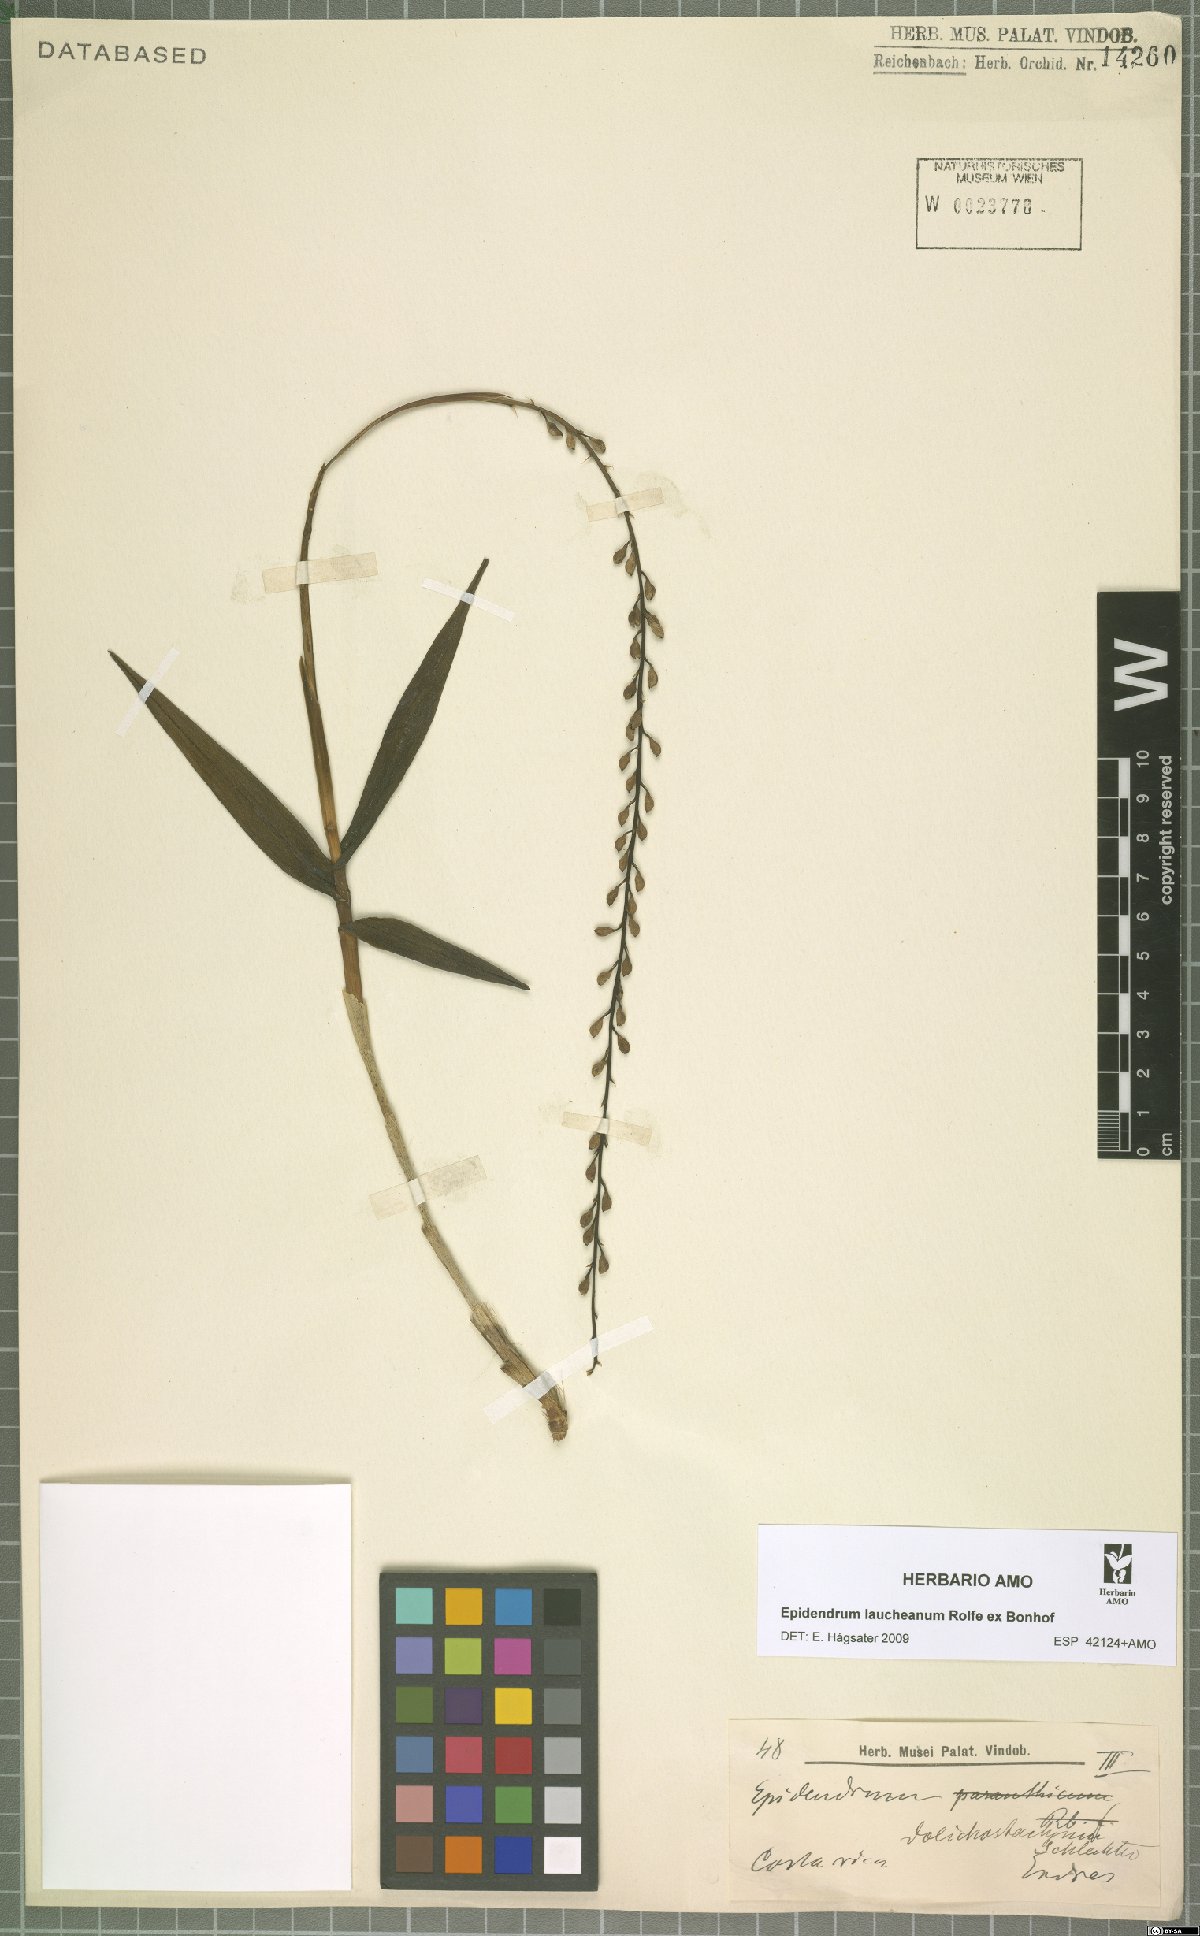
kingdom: Plantae
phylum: Tracheophyta
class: Liliopsida
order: Asparagales
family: Orchidaceae
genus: Epidendrum
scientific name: Epidendrum laucheanum
